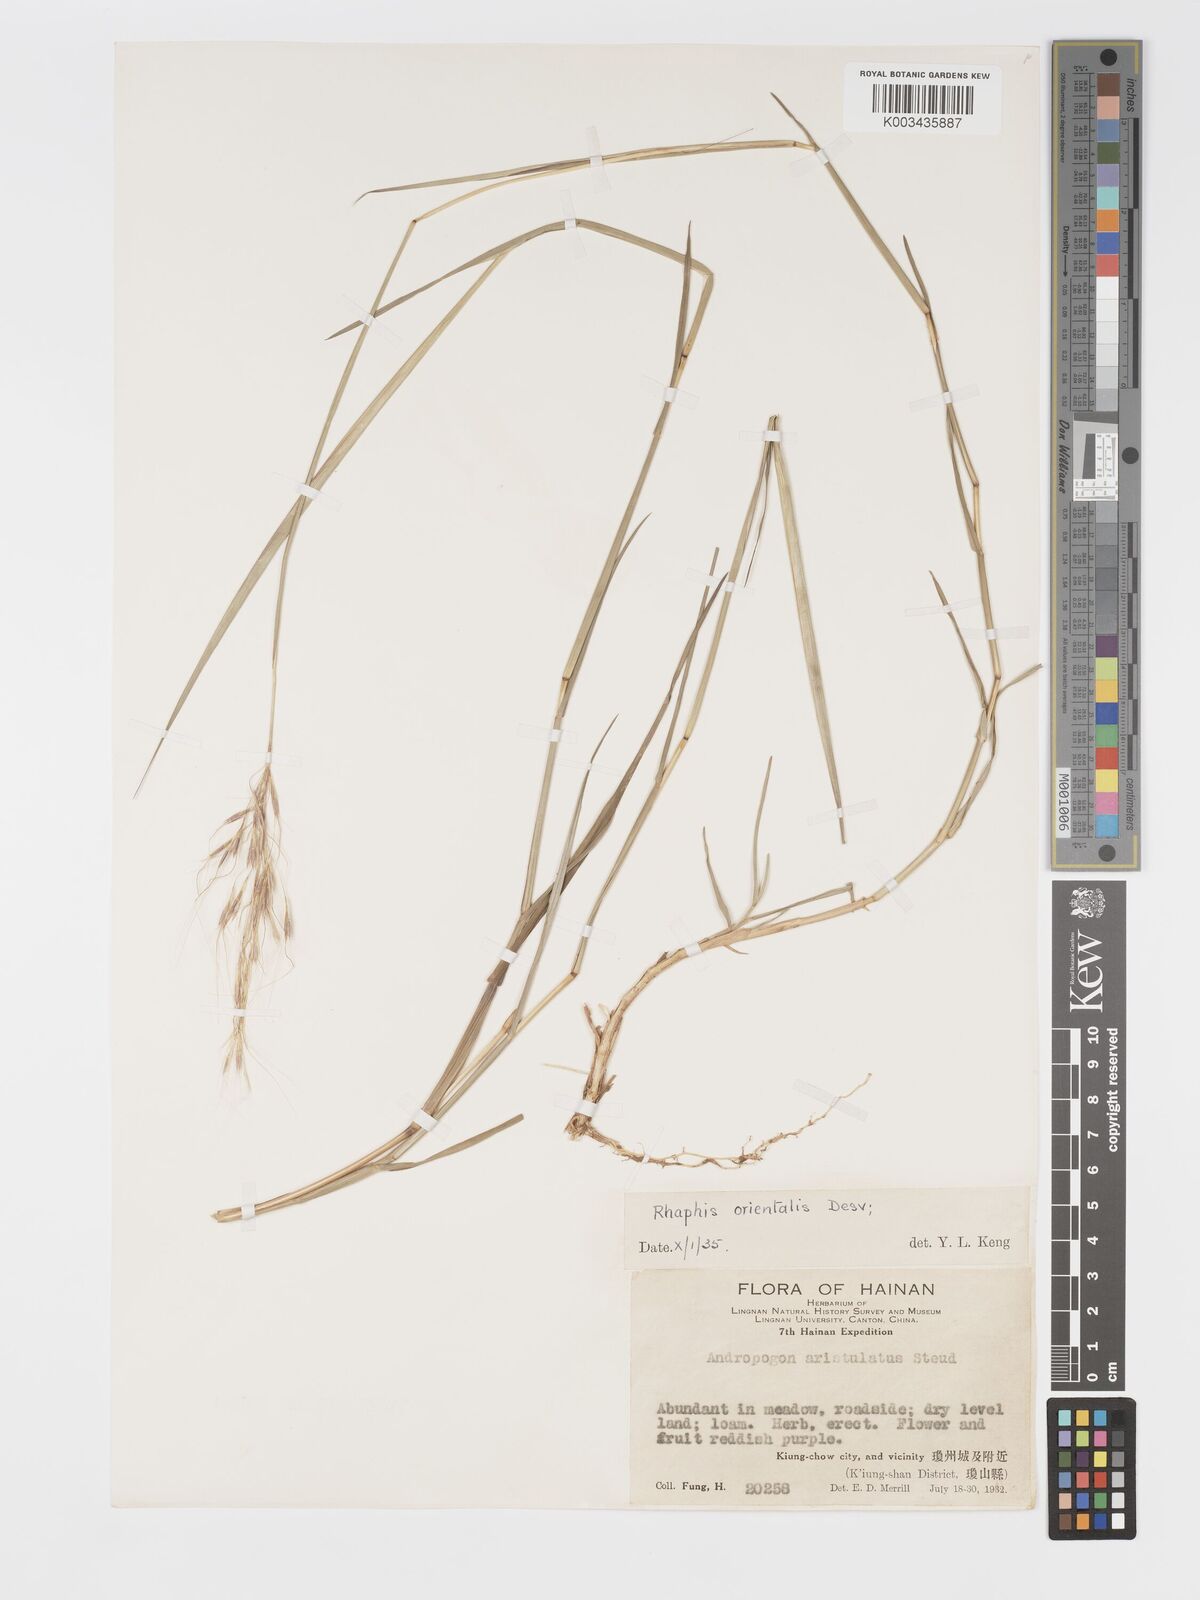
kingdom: Plantae
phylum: Tracheophyta
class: Liliopsida
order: Poales
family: Poaceae
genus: Chrysopogon
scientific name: Chrysopogon orientalis
